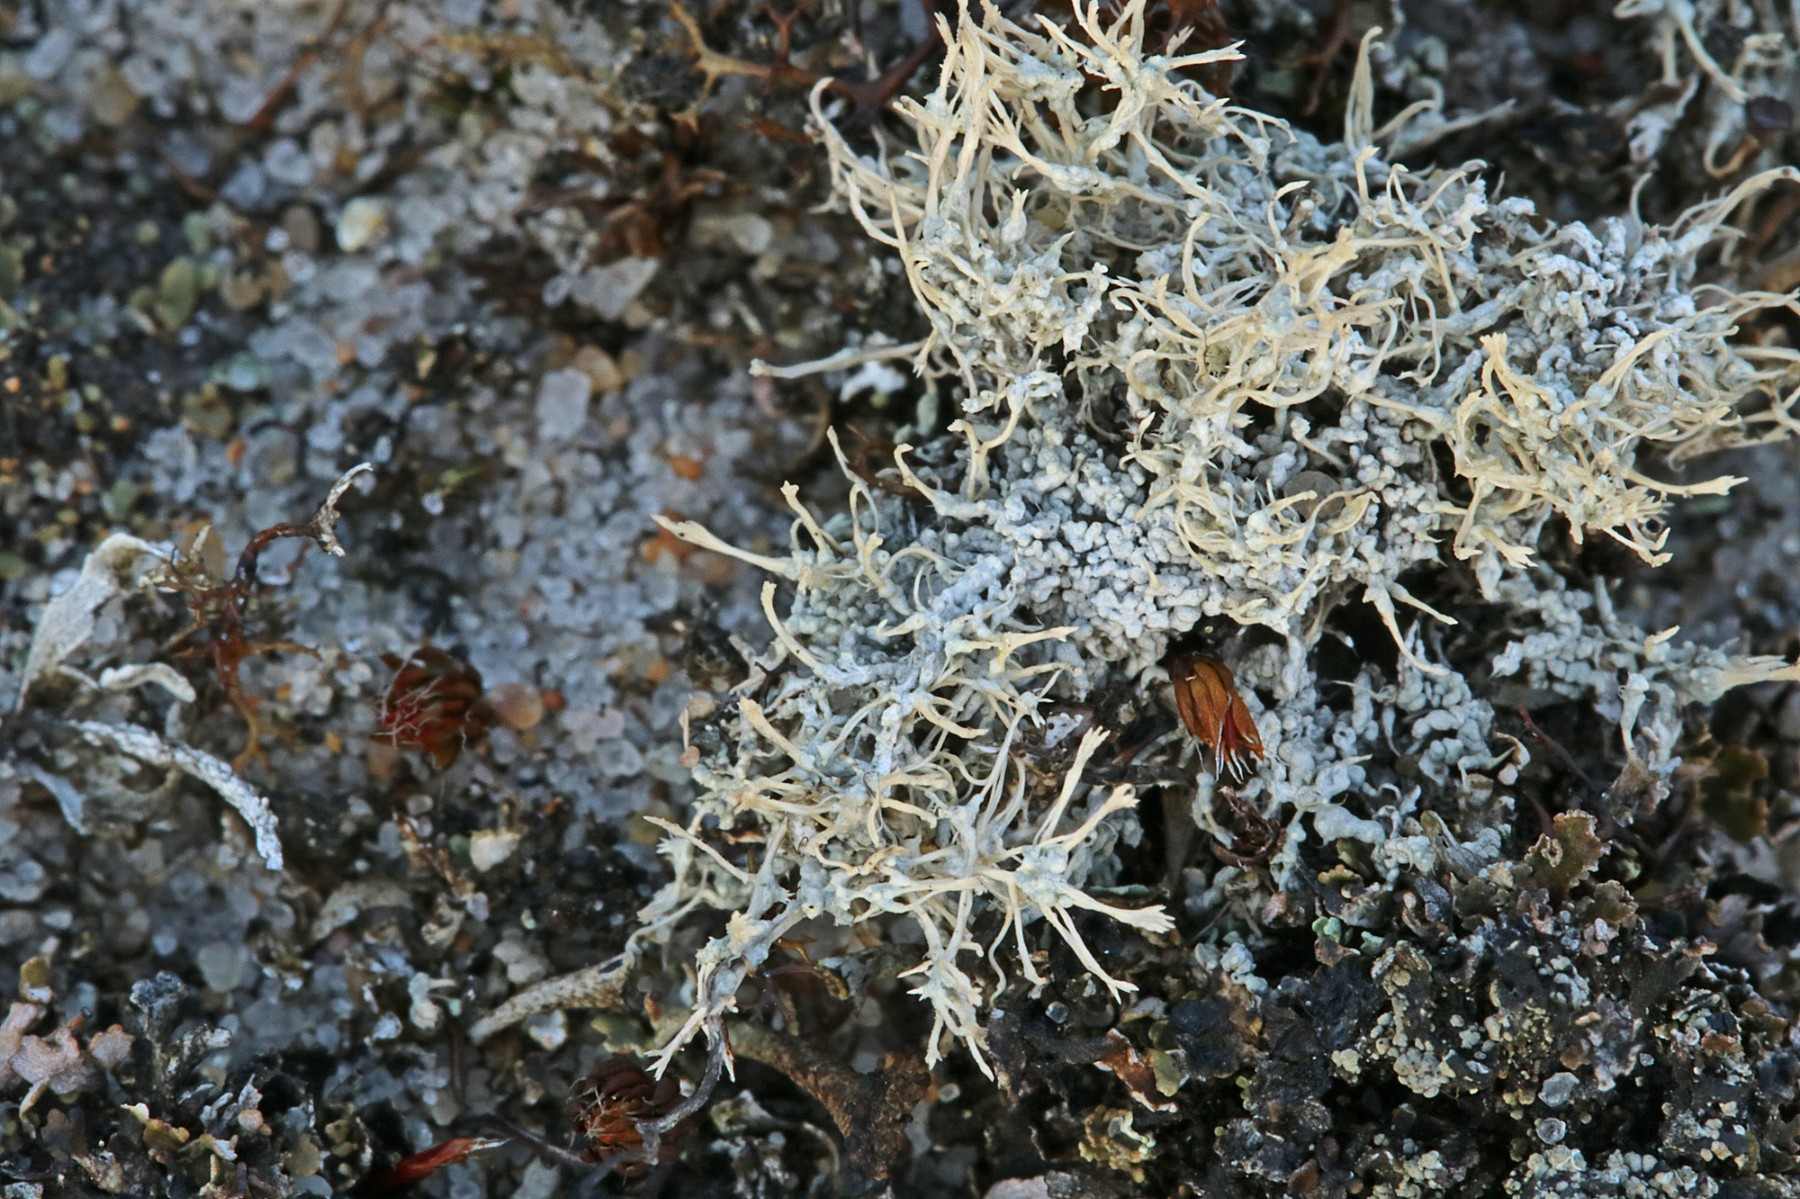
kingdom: Fungi
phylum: Ascomycota
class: Lecanoromycetes
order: Pertusariales
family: Ochrolechiaceae
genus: Ochrolechia
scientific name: Ochrolechia frigida
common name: fjeld-blegskivelav
